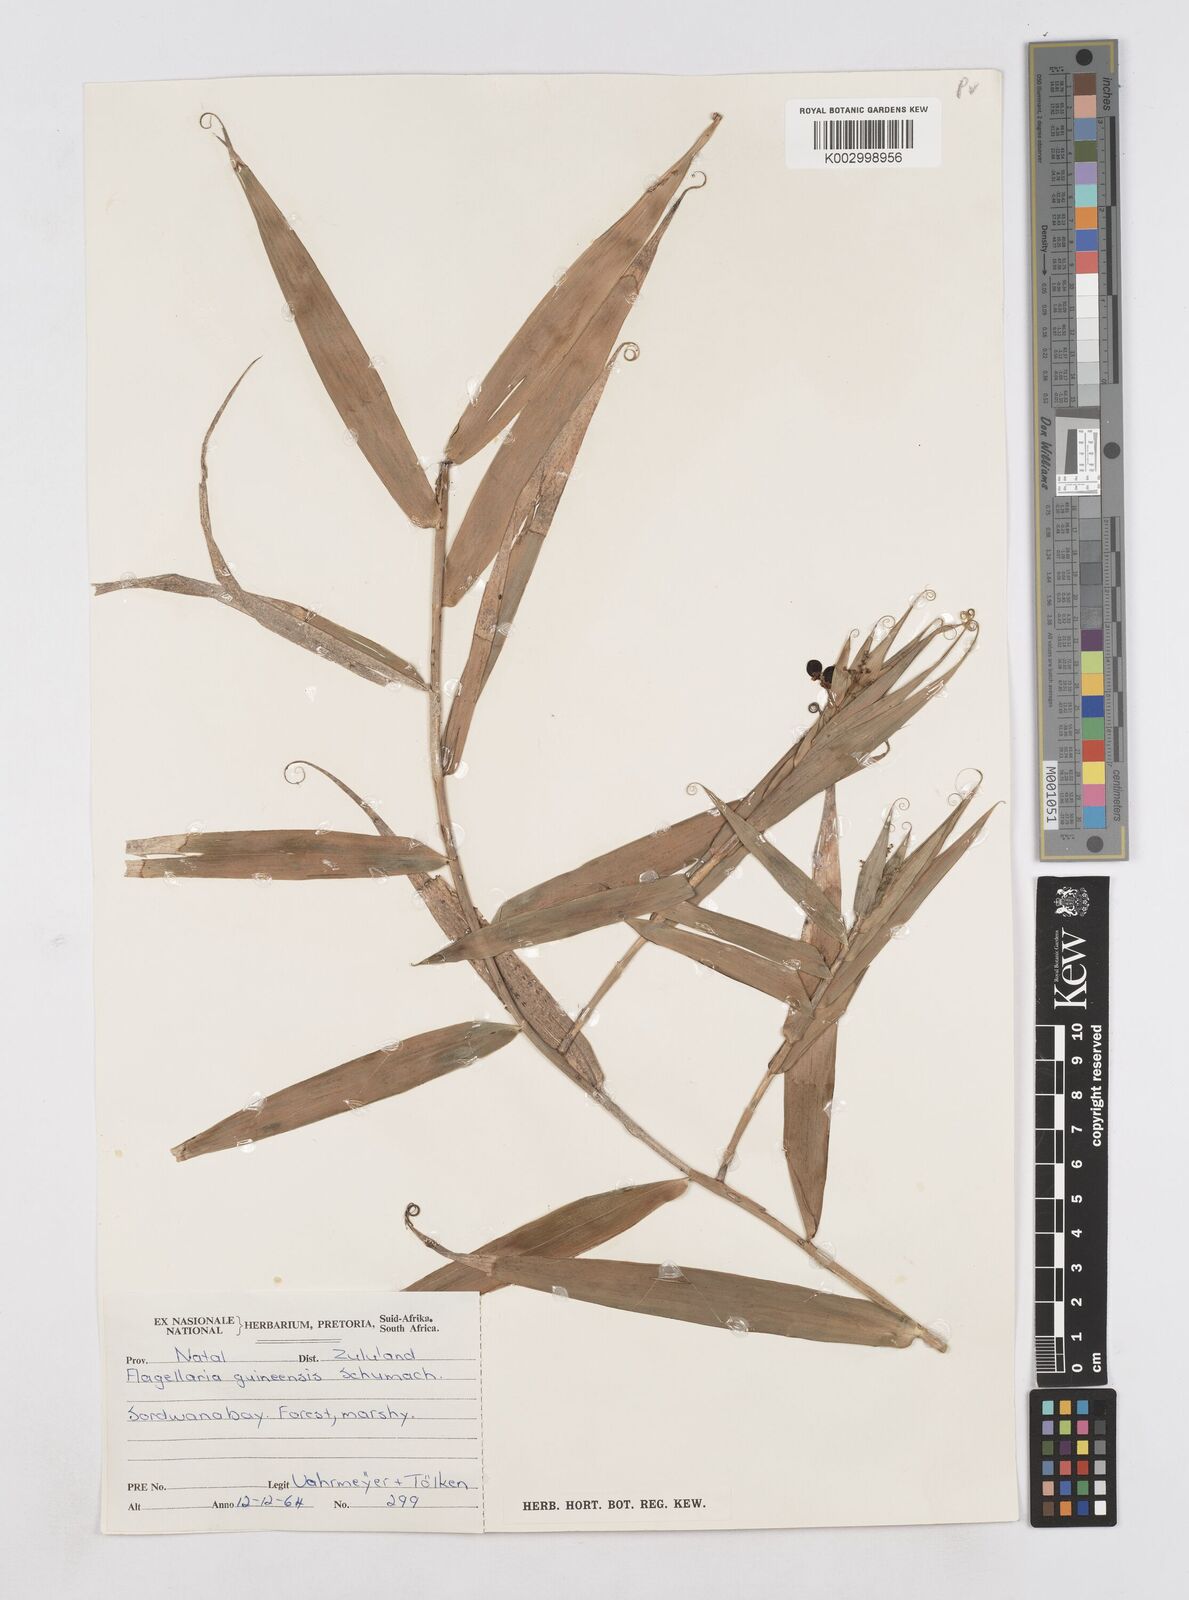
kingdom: Plantae
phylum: Tracheophyta
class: Liliopsida
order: Poales
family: Flagellariaceae
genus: Flagellaria
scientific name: Flagellaria guineensis
